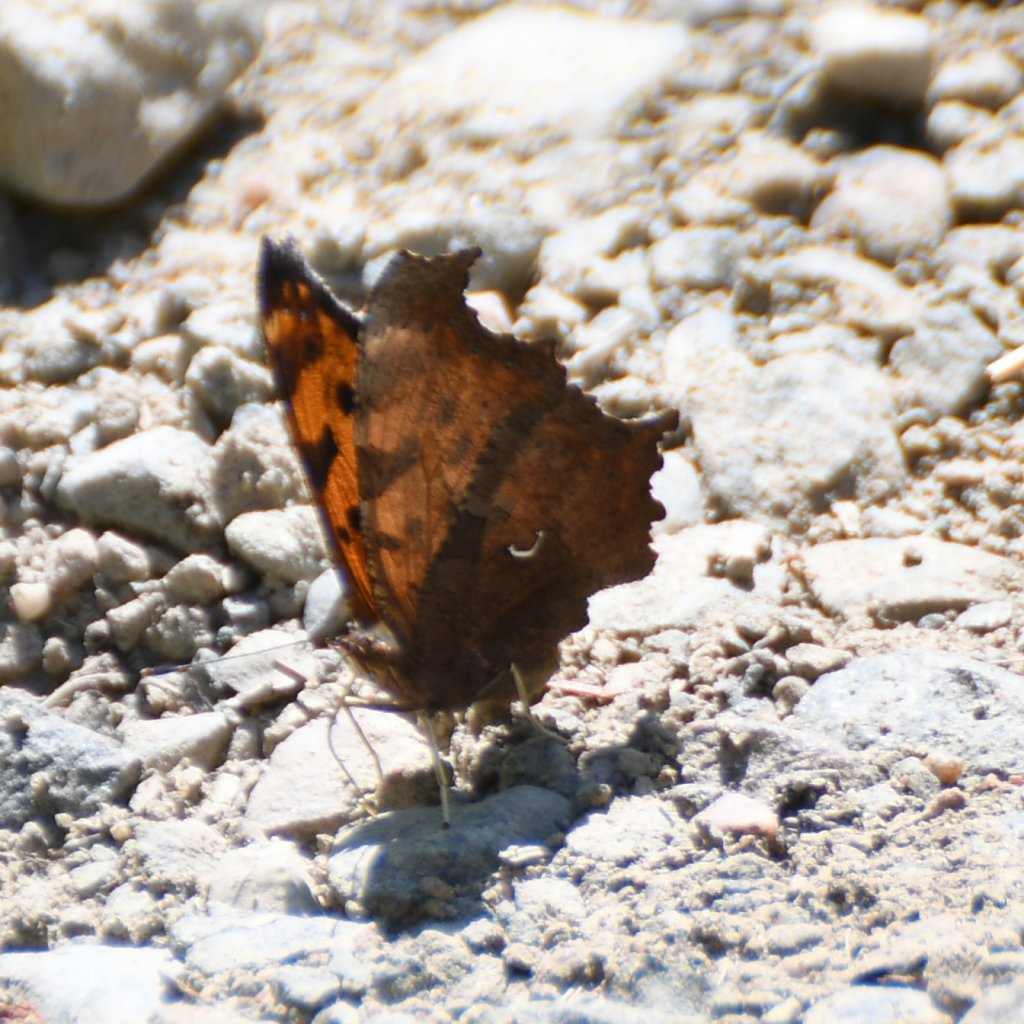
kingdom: Animalia
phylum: Arthropoda
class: Insecta
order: Lepidoptera
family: Nymphalidae
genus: Polygonia
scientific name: Polygonia comma
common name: Eastern Comma
